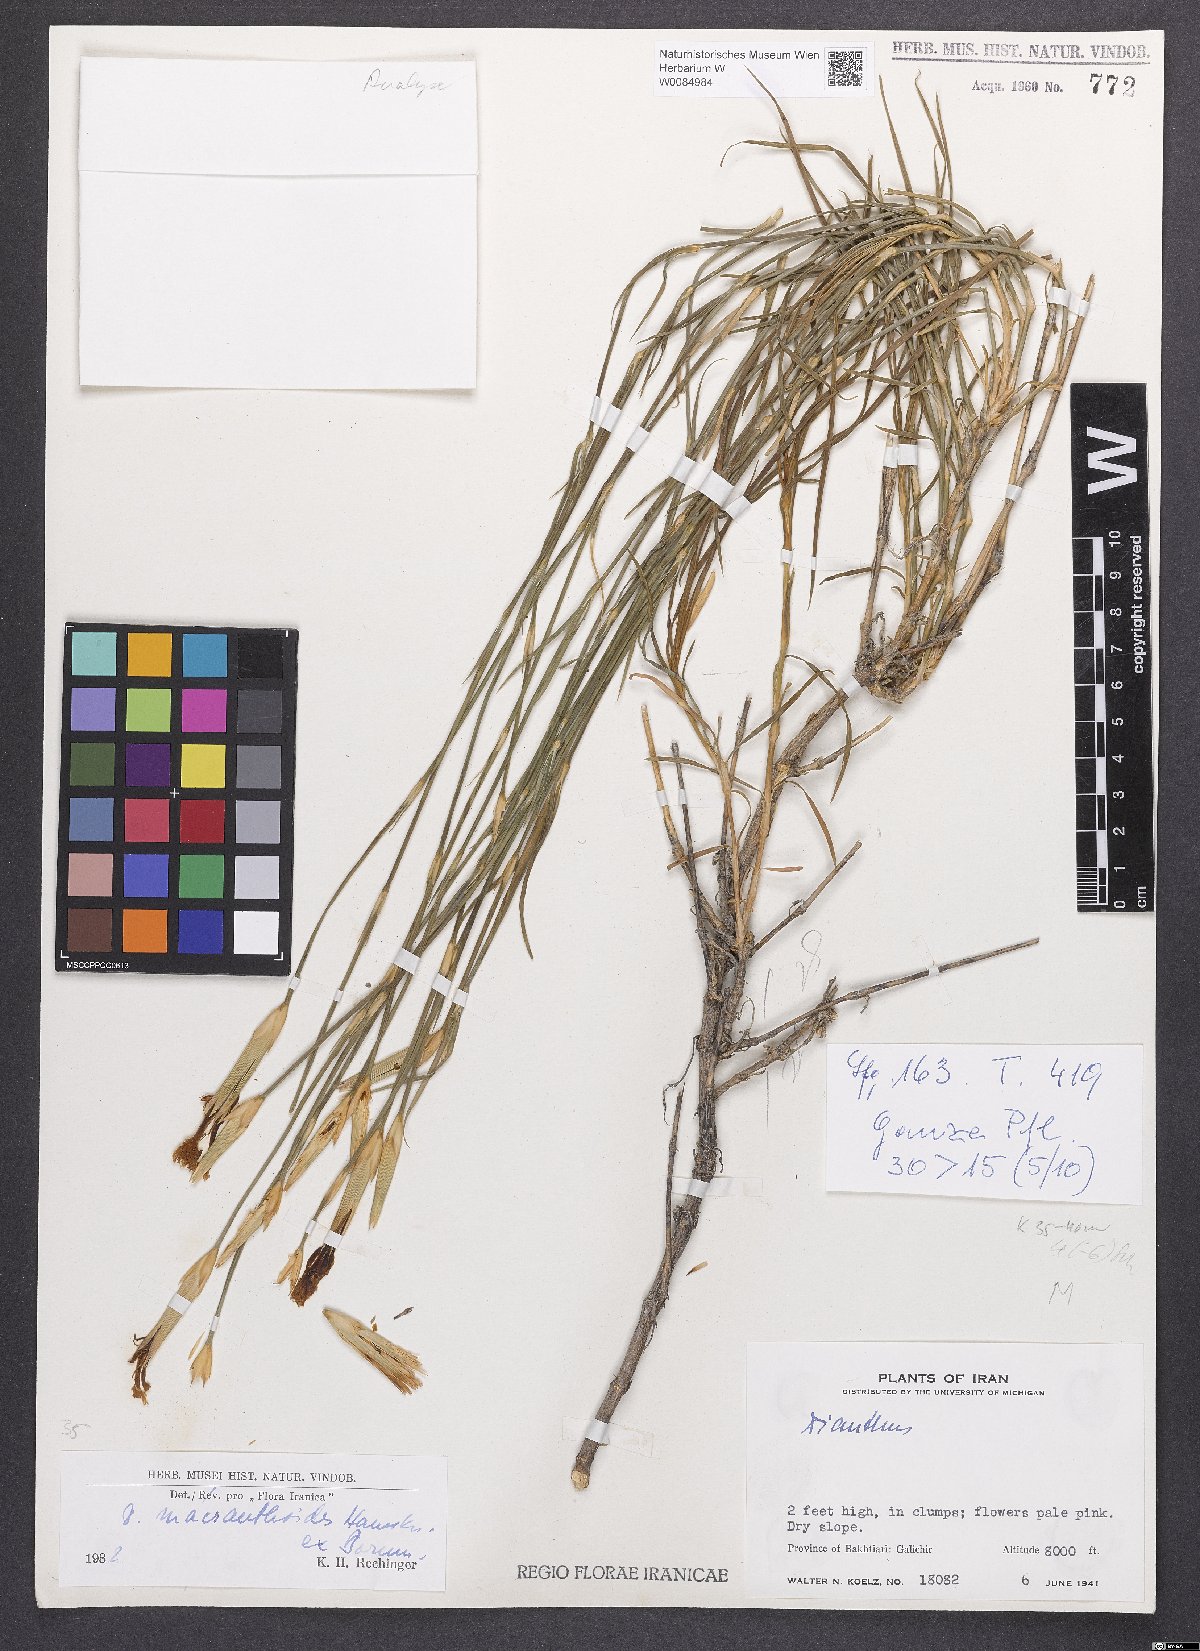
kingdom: Plantae
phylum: Tracheophyta
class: Magnoliopsida
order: Caryophyllales
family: Caryophyllaceae
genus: Dianthus
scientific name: Dianthus macranthoides
